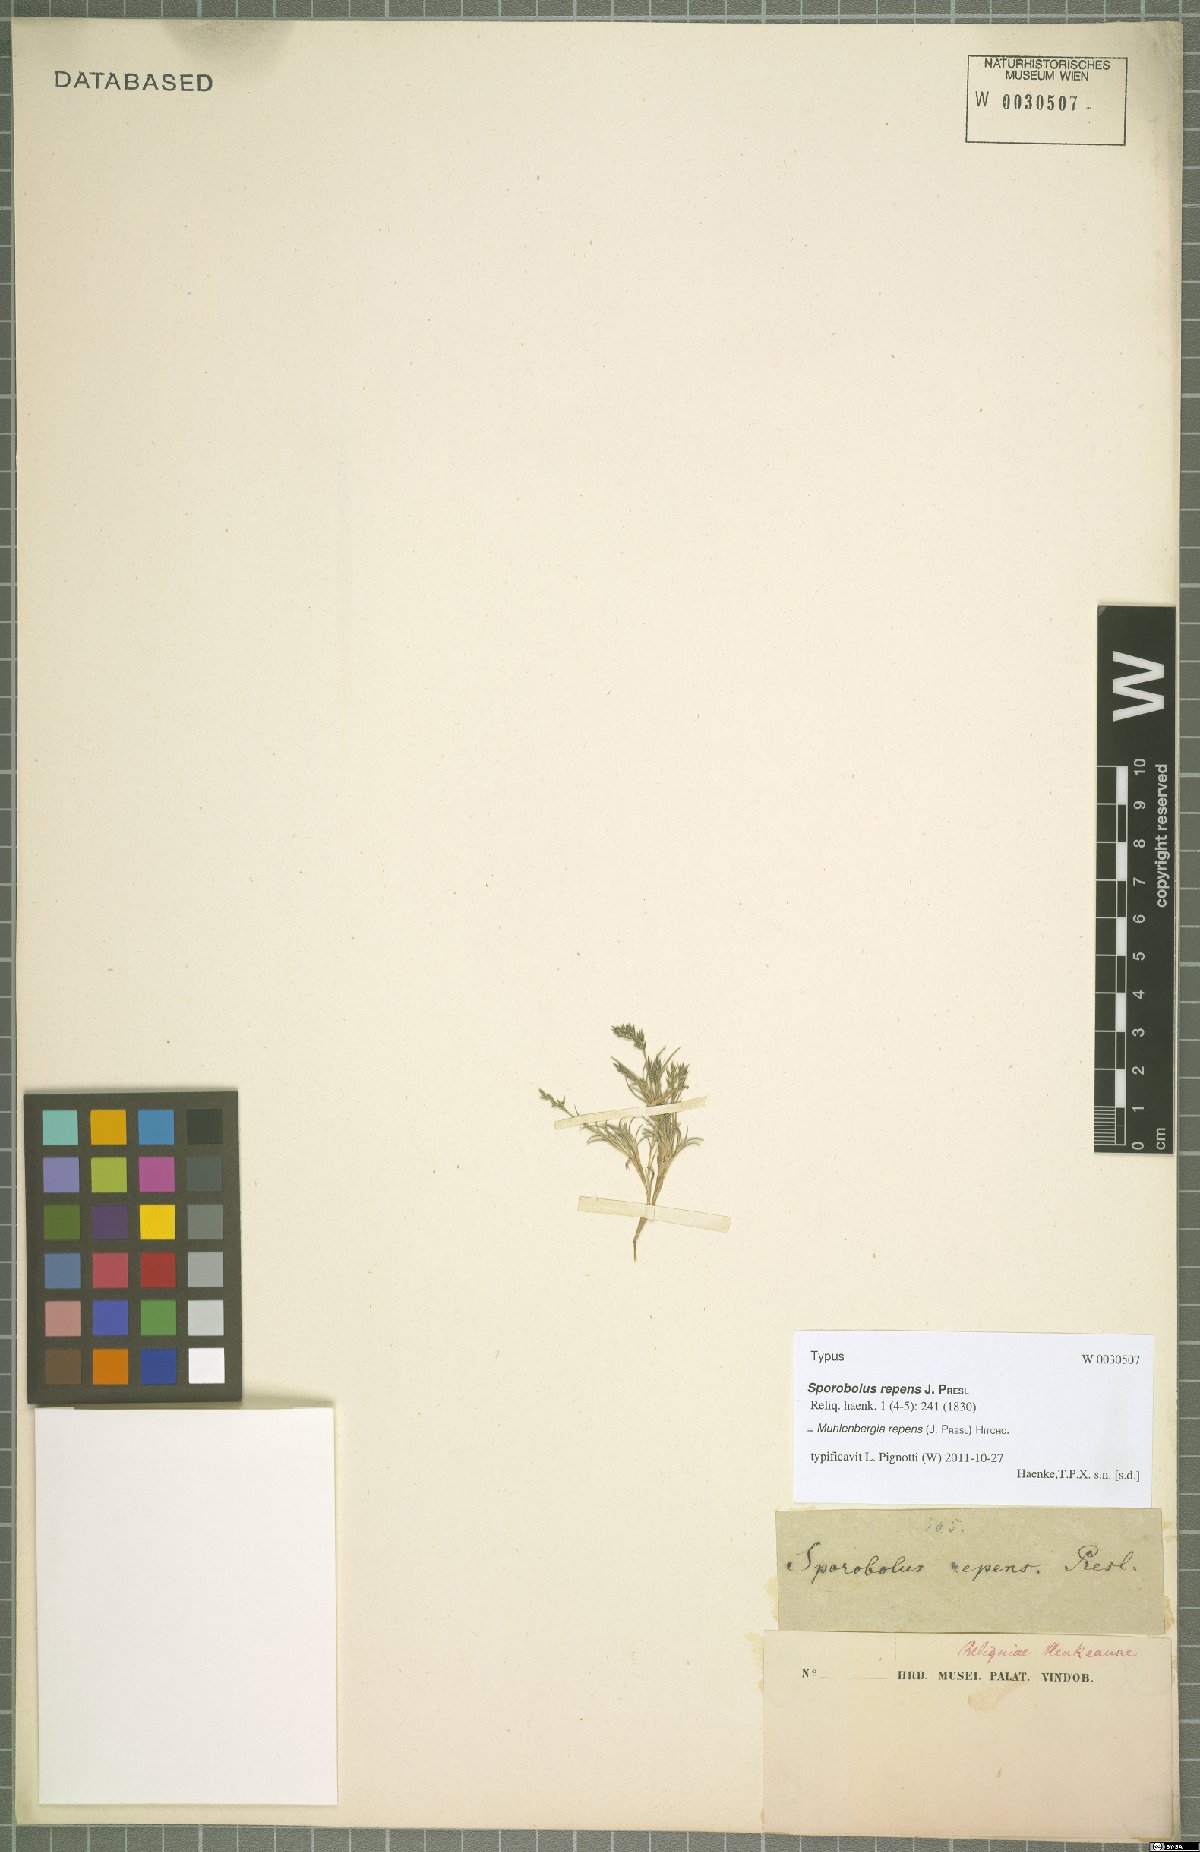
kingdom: Plantae
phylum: Tracheophyta
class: Liliopsida
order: Poales
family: Poaceae
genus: Muhlenbergia
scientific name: Muhlenbergia repens
